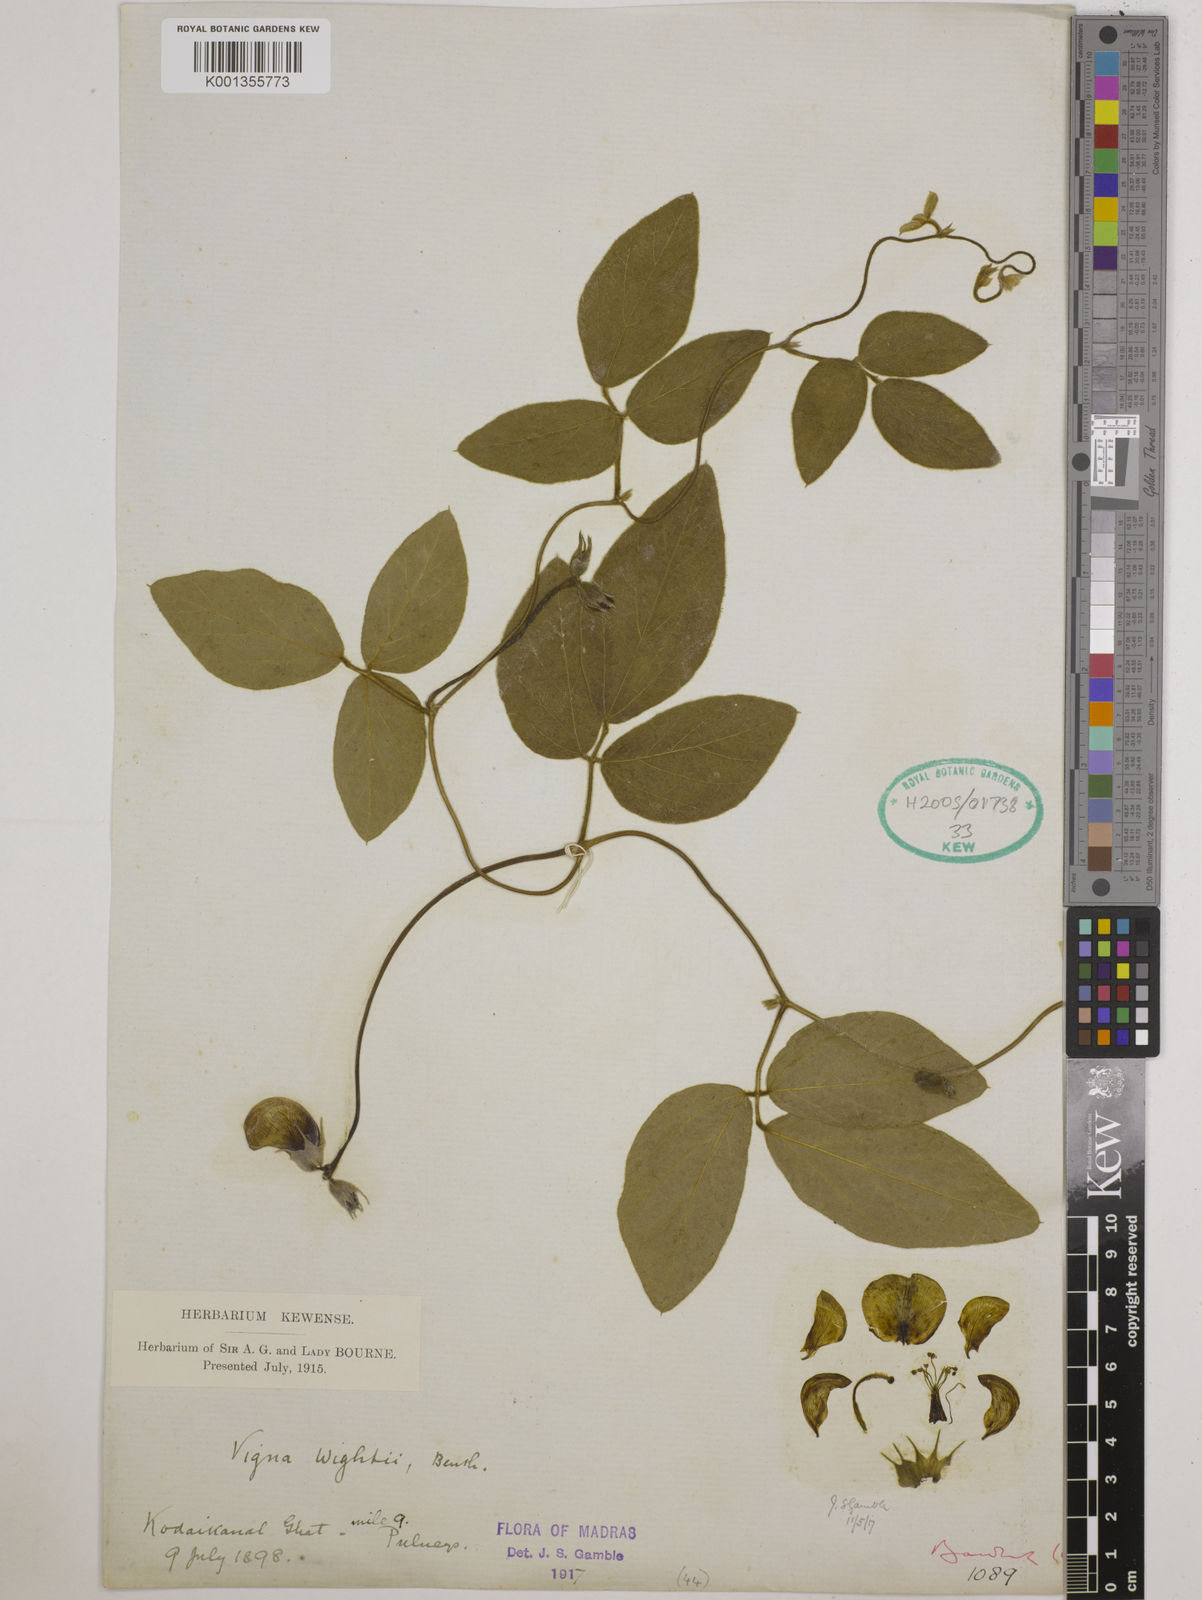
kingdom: Plantae
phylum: Tracheophyta
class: Magnoliopsida
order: Fabales
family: Fabaceae
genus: Vigna
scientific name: Vigna vexillata
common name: Zombi pea
